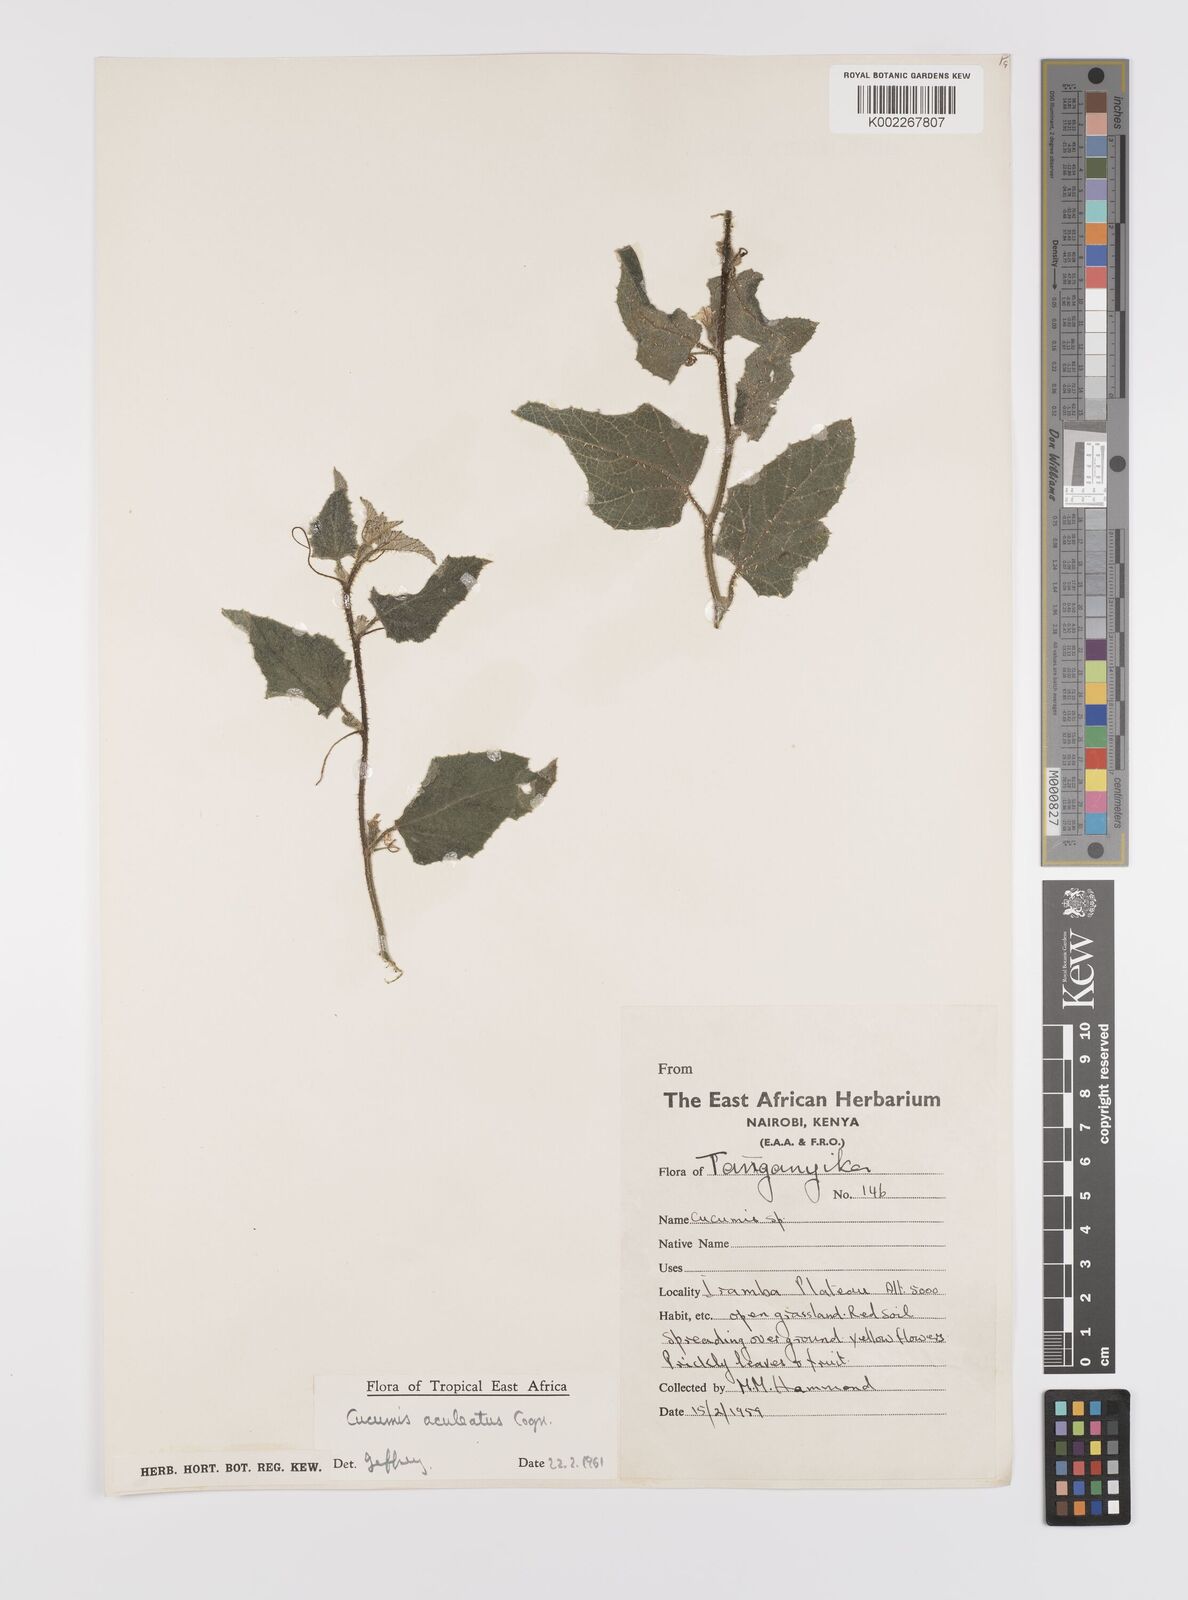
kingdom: Plantae
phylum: Tracheophyta
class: Magnoliopsida
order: Cucurbitales
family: Cucurbitaceae
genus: Cucumis
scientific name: Cucumis aculeatus
